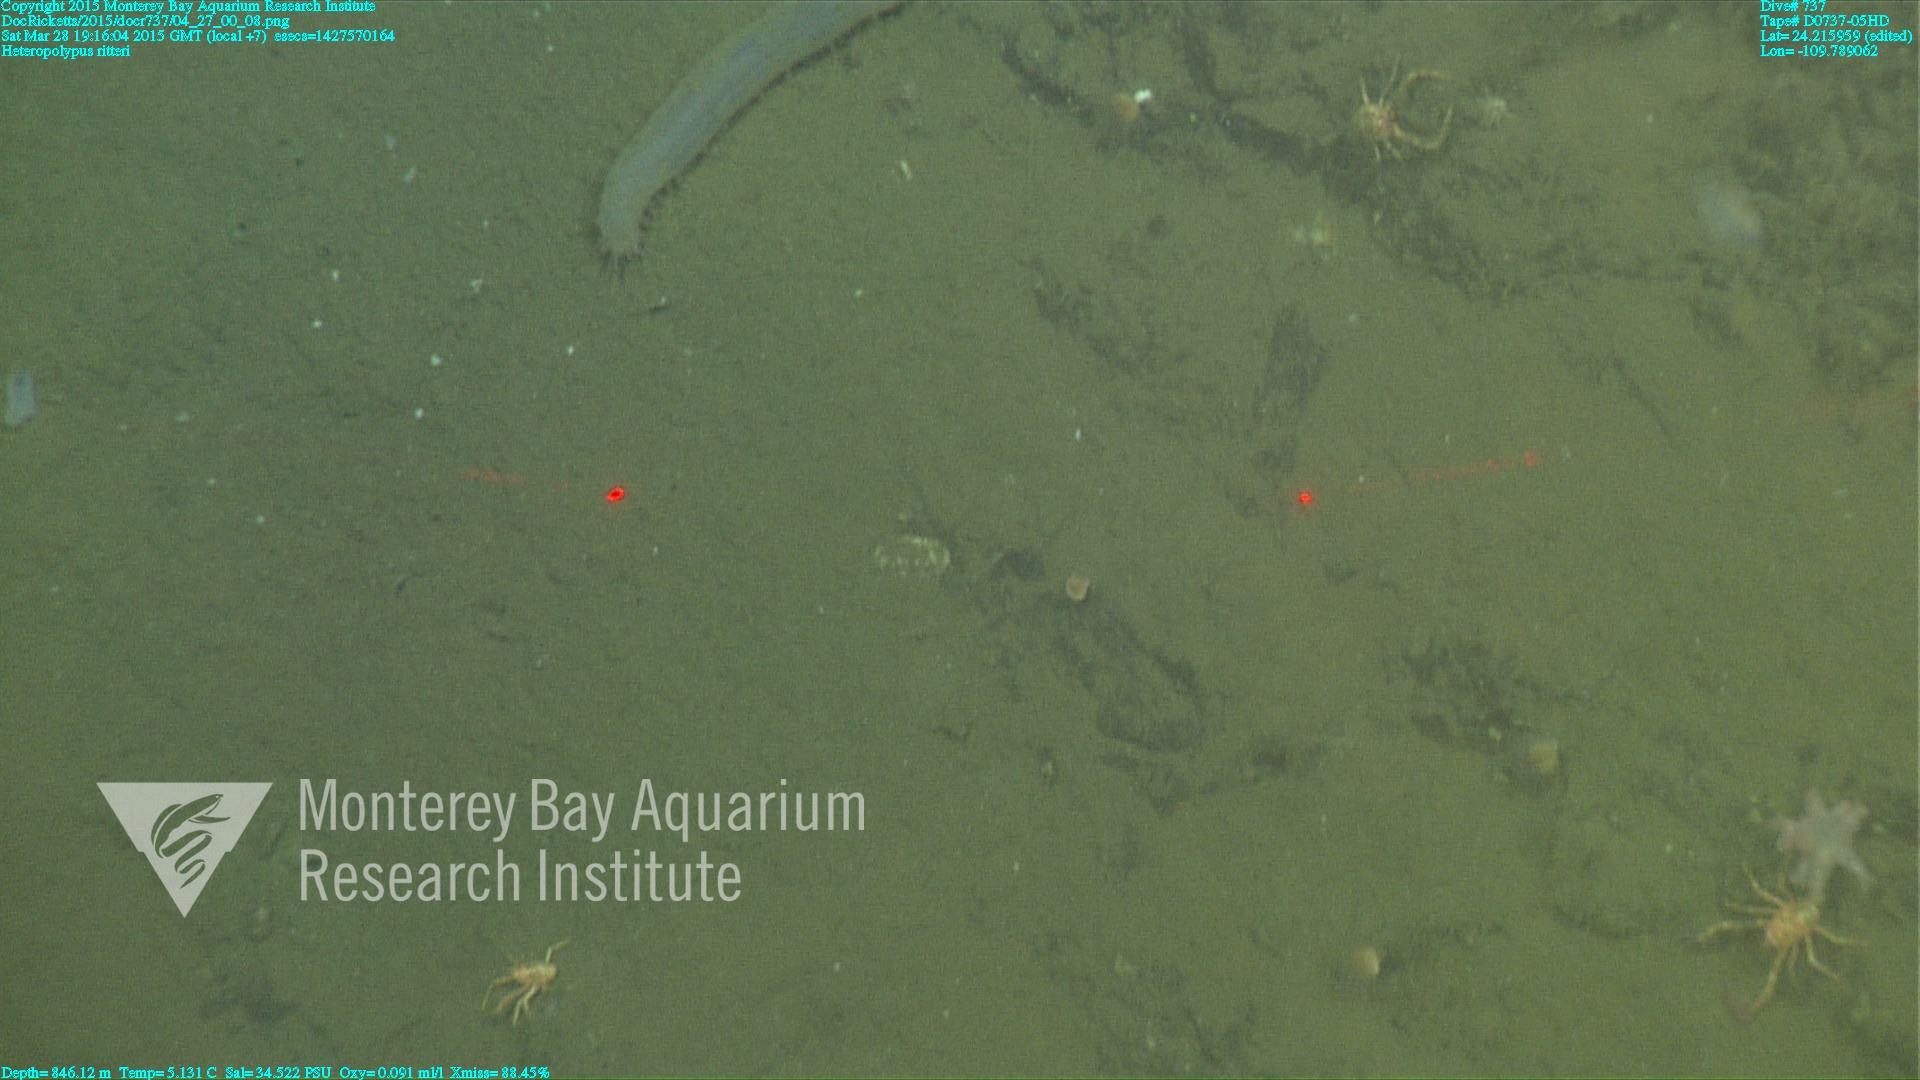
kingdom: Animalia
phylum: Cnidaria
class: Anthozoa
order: Scleralcyonacea
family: Coralliidae
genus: Heteropolypus
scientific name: Heteropolypus ritteri
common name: Ritter's soft coral
